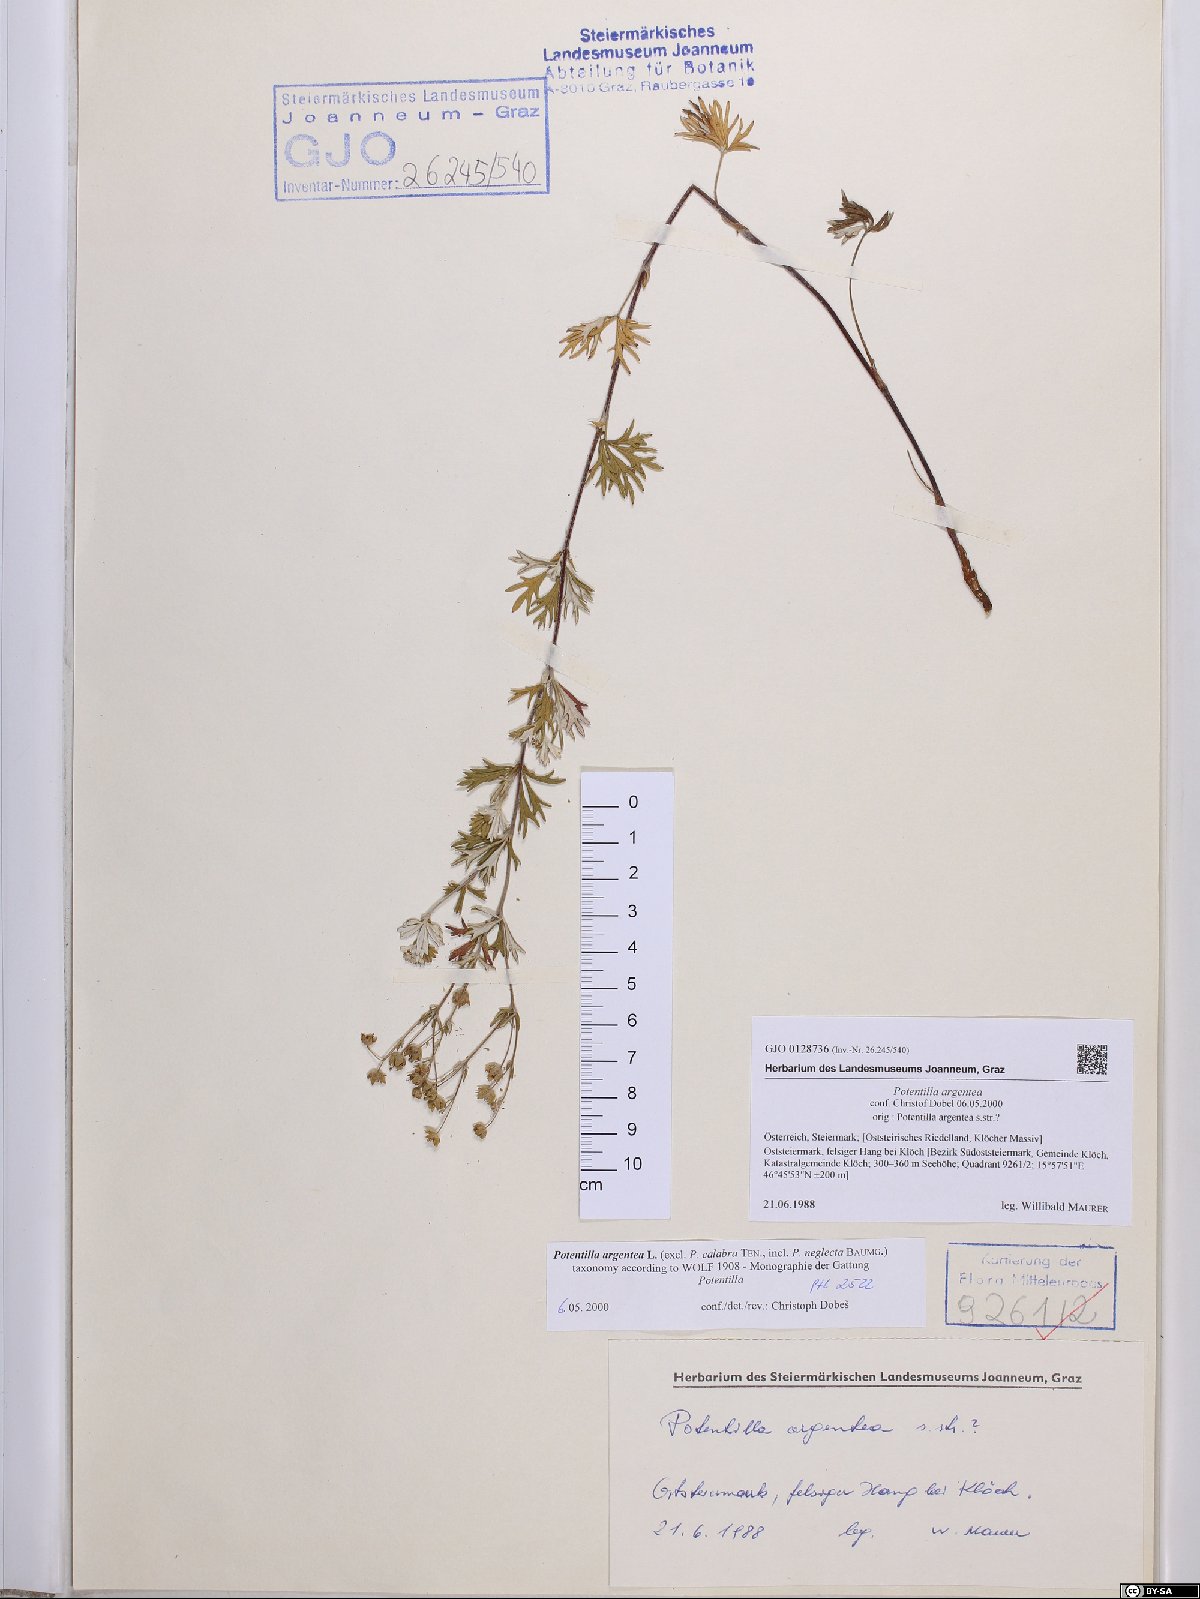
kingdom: Plantae
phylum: Tracheophyta
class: Magnoliopsida
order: Rosales
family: Rosaceae
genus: Potentilla
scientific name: Potentilla argentea
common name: Hoary cinquefoil
